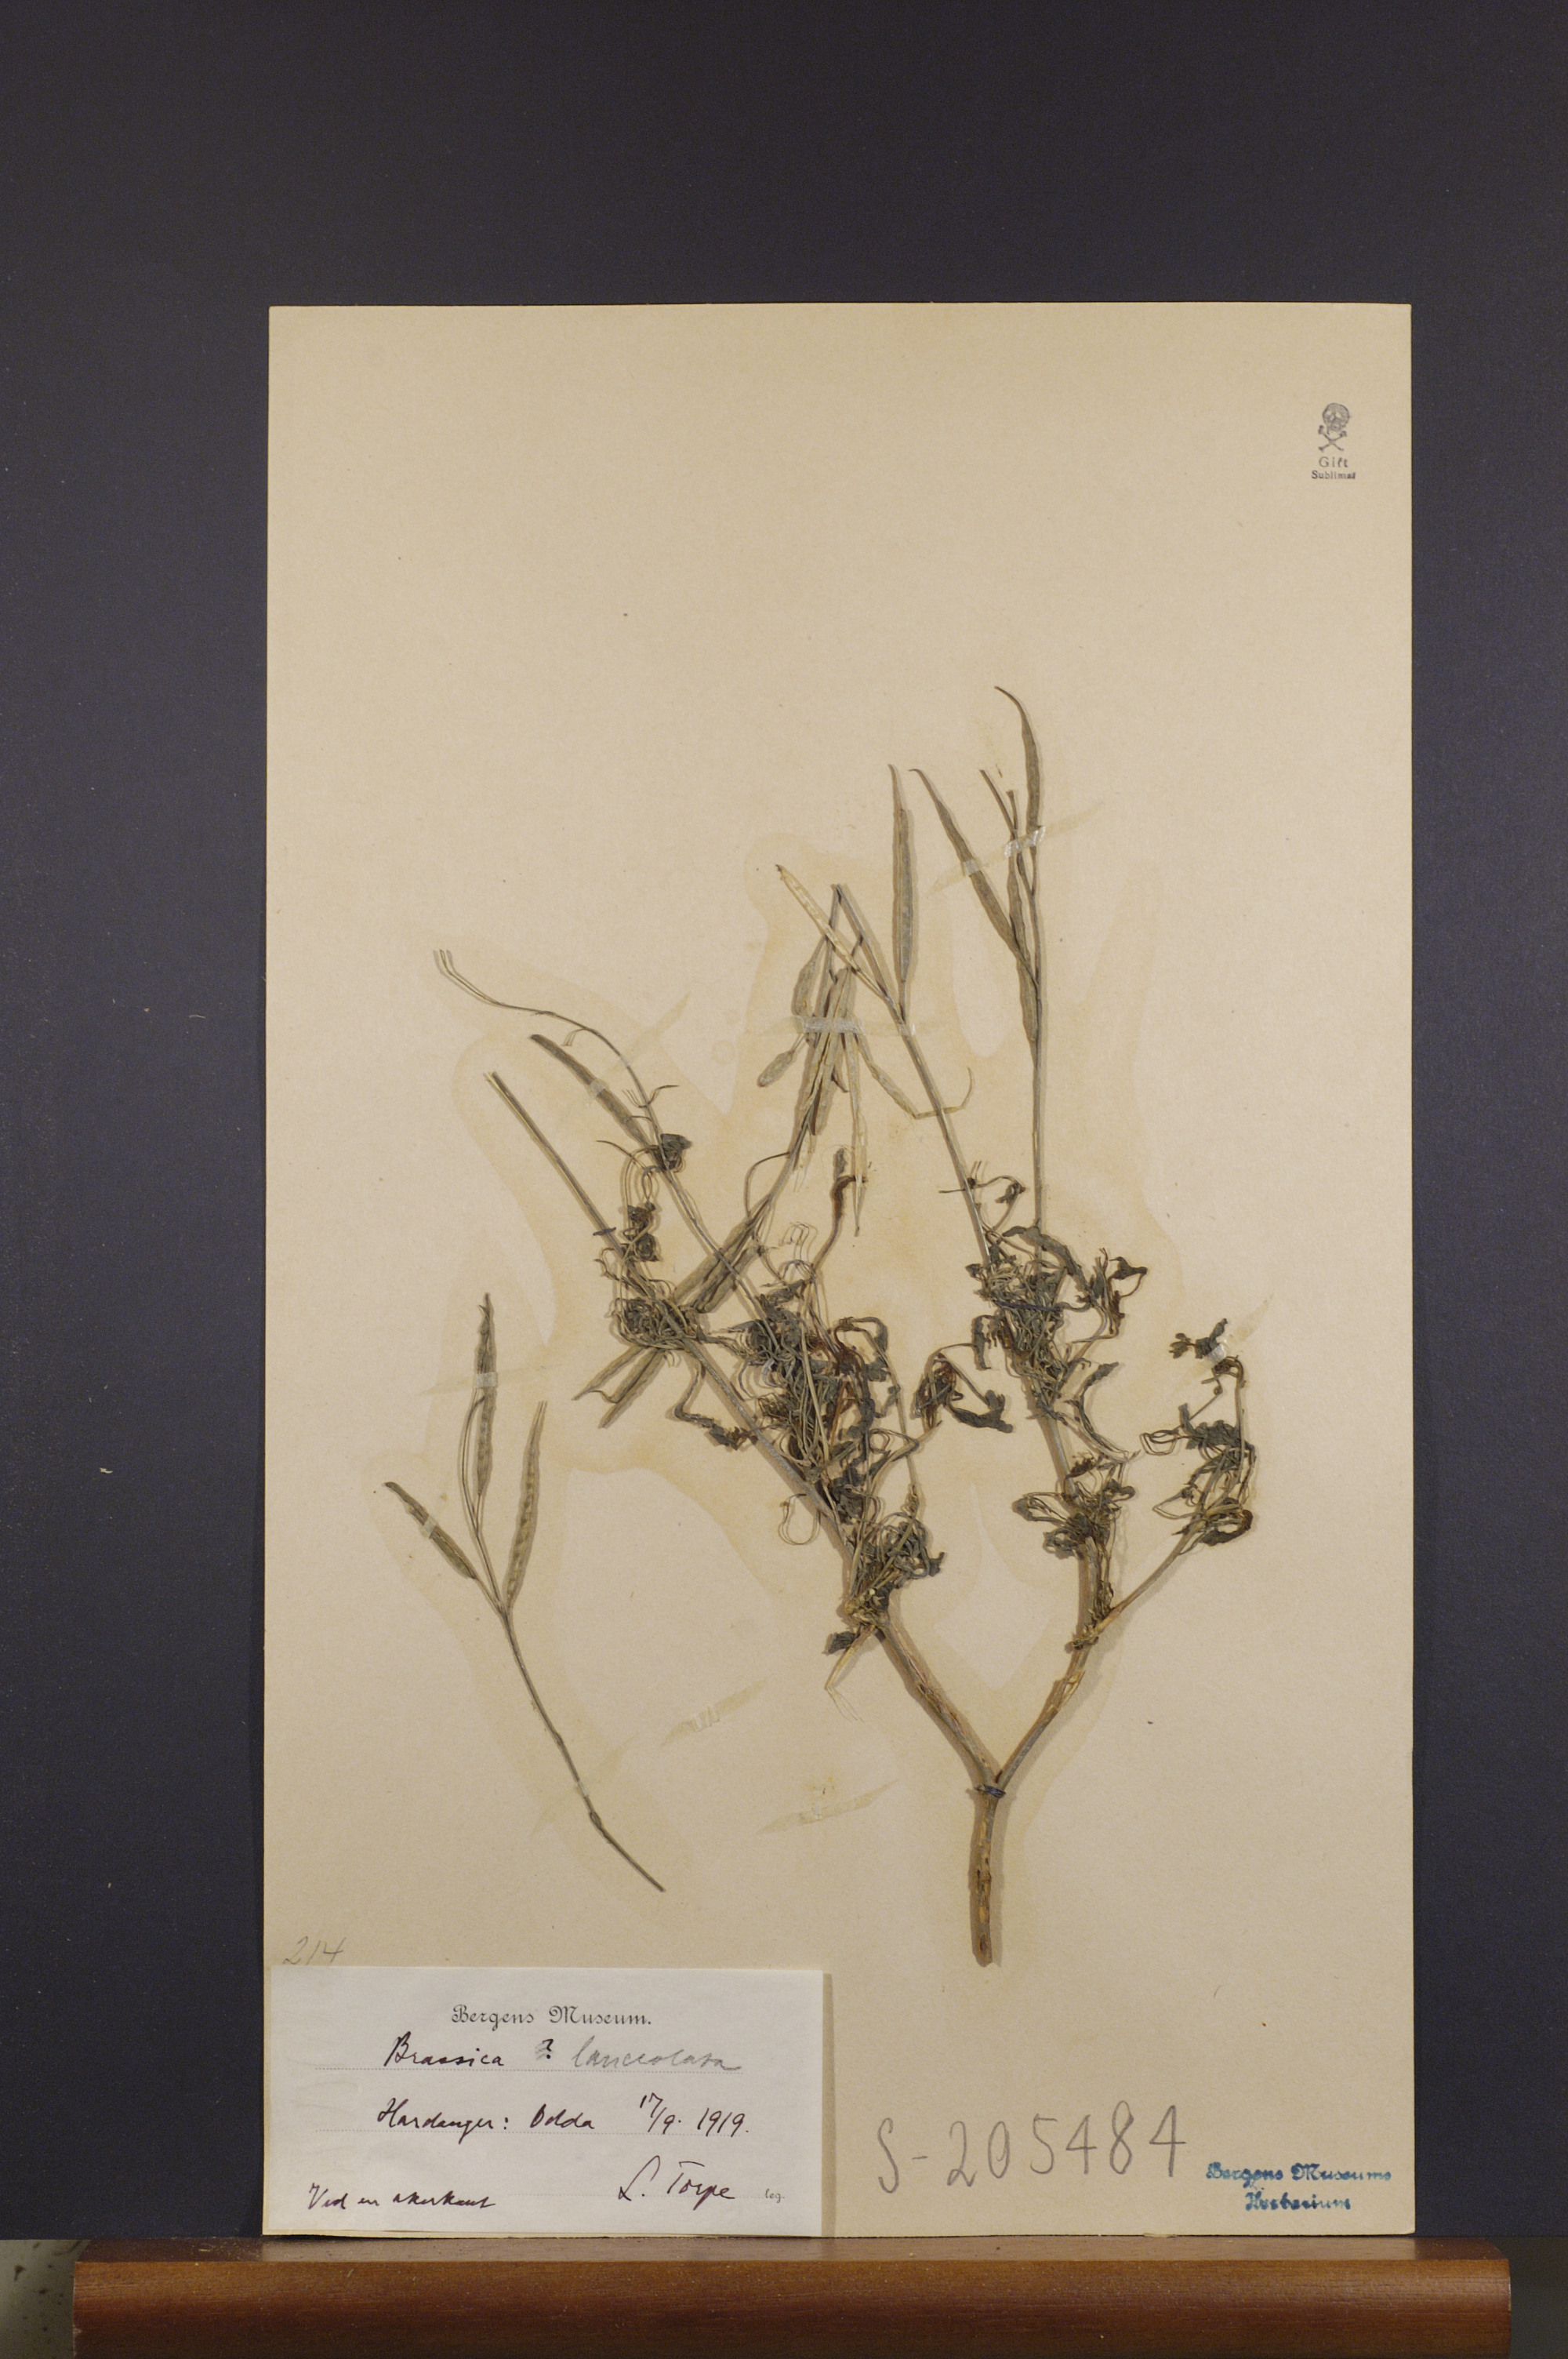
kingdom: Plantae
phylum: Tracheophyta
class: Magnoliopsida
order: Brassicales
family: Brassicaceae
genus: Brassica
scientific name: Brassica juncea
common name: Brown mustard
